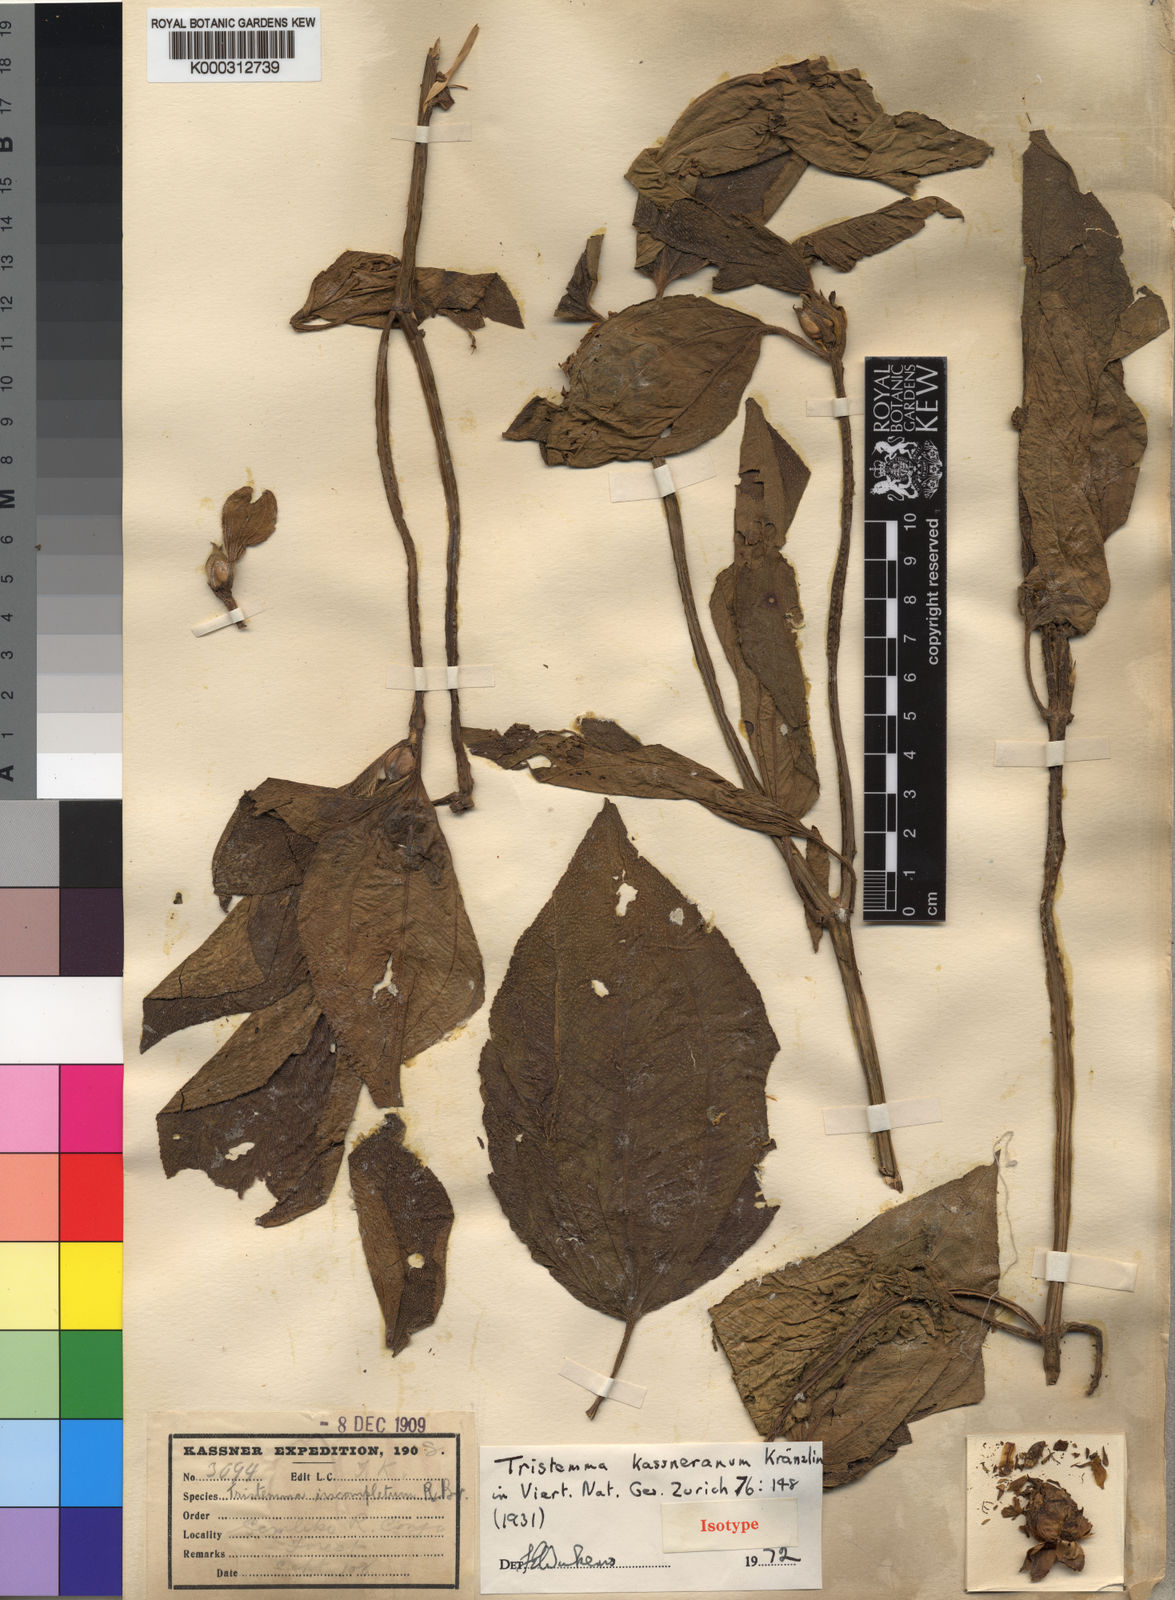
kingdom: Plantae
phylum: Tracheophyta
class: Magnoliopsida
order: Myrtales
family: Melastomataceae
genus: Tristemma
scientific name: Tristemma
